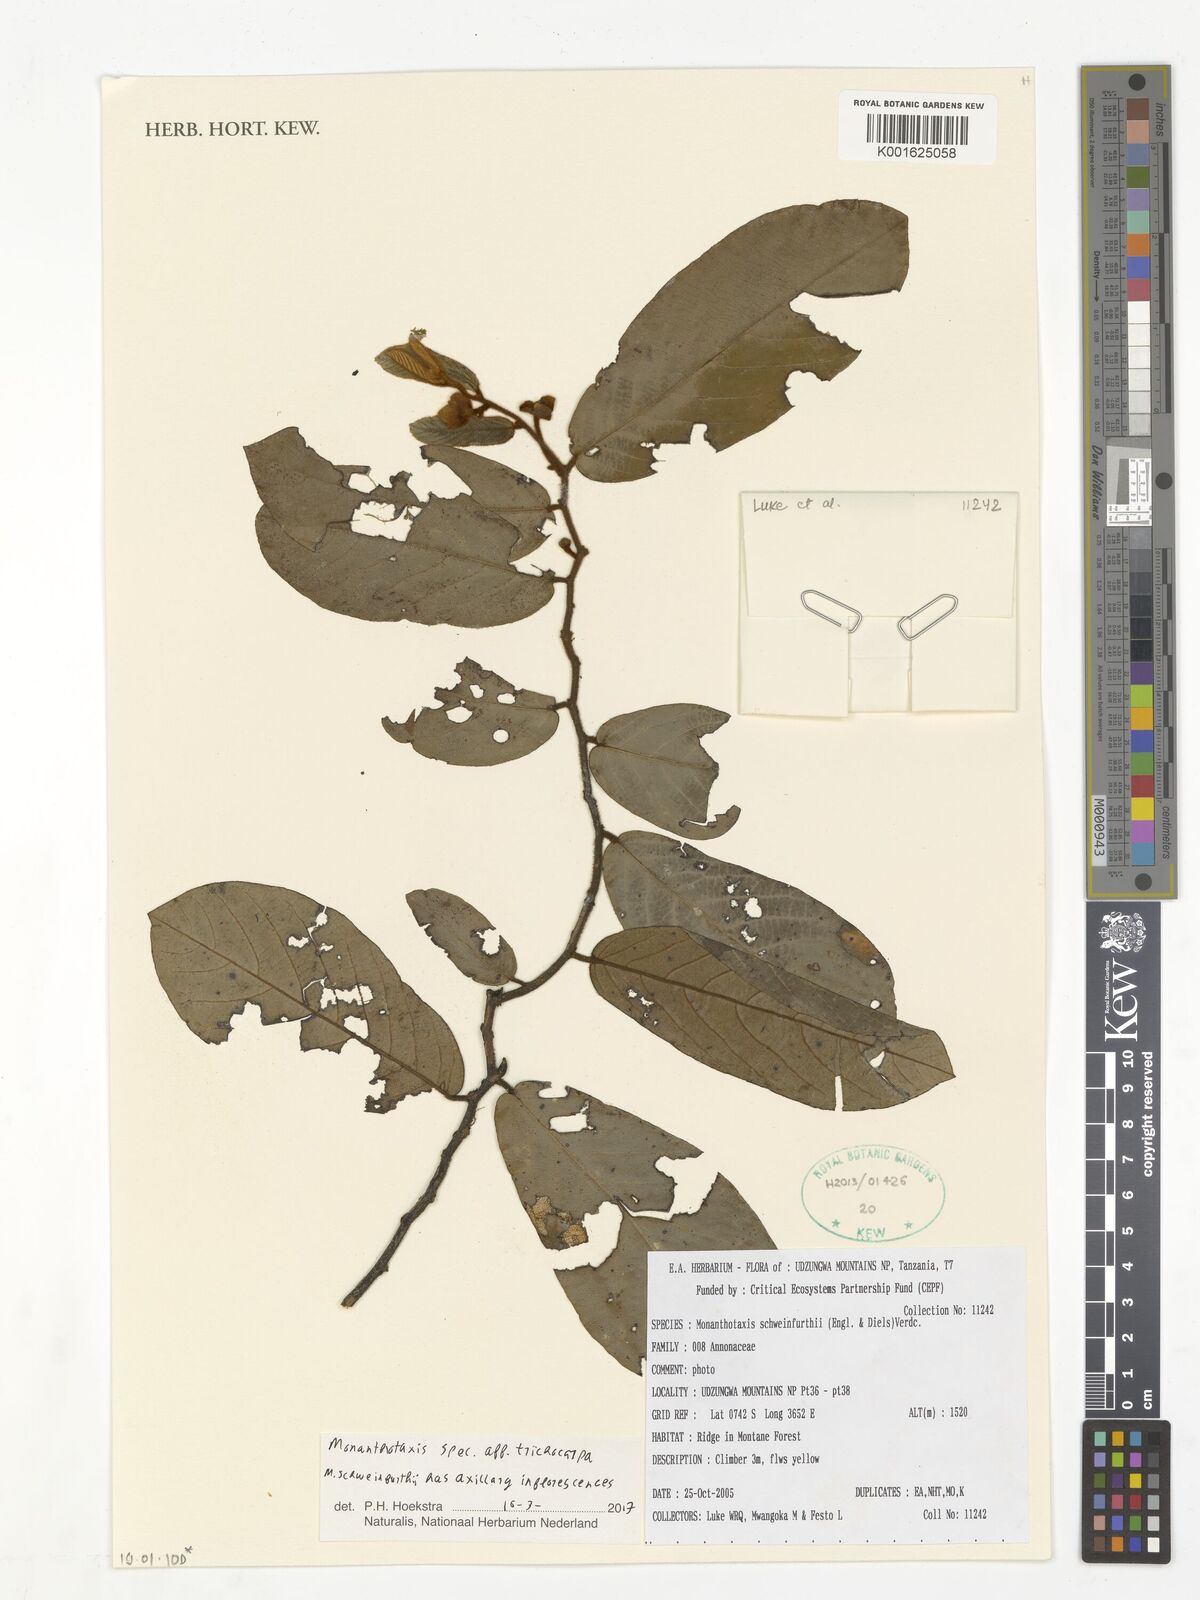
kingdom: Plantae
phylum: Tracheophyta
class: Magnoliopsida
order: Magnoliales
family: Annonaceae
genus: Monanthotaxis
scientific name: Monanthotaxis trichocarpa
